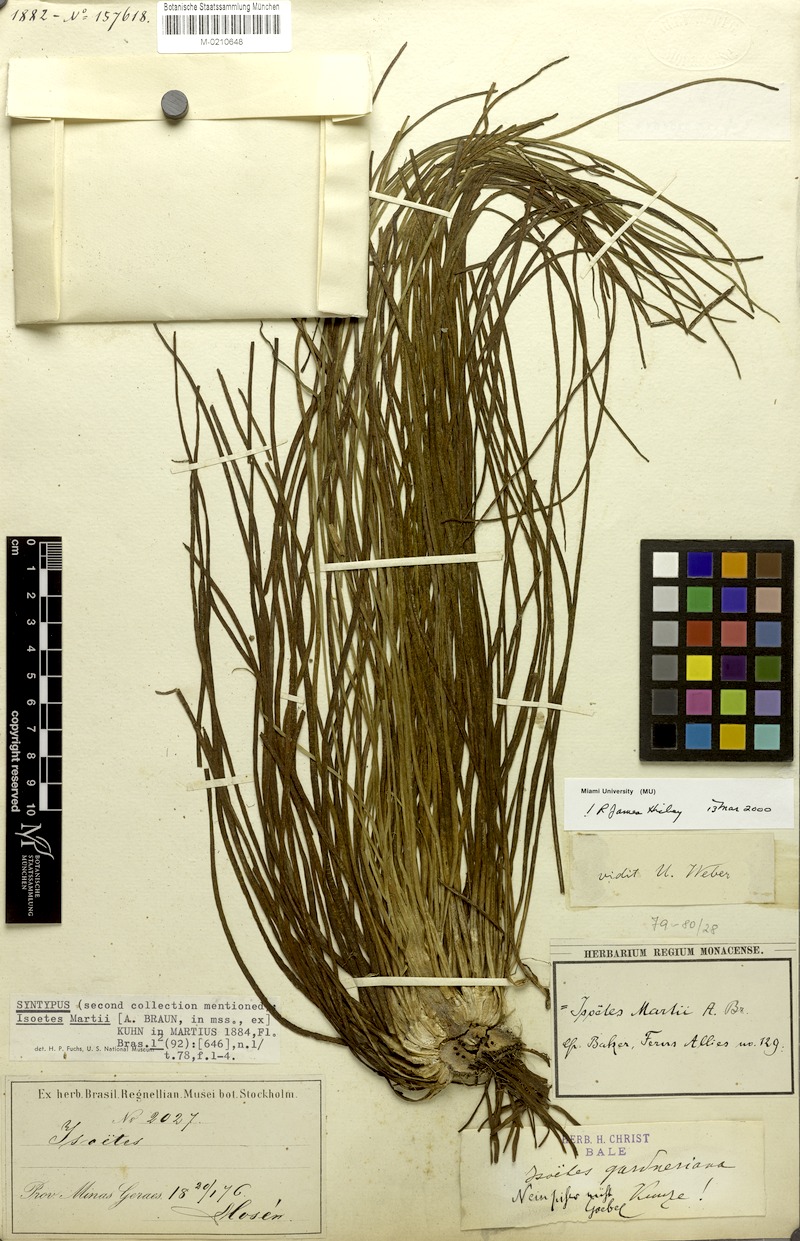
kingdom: Plantae
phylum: Tracheophyta
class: Lycopodiopsida
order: Isoetales
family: Isoetaceae
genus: Isoetes
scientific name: Isoetes martii
